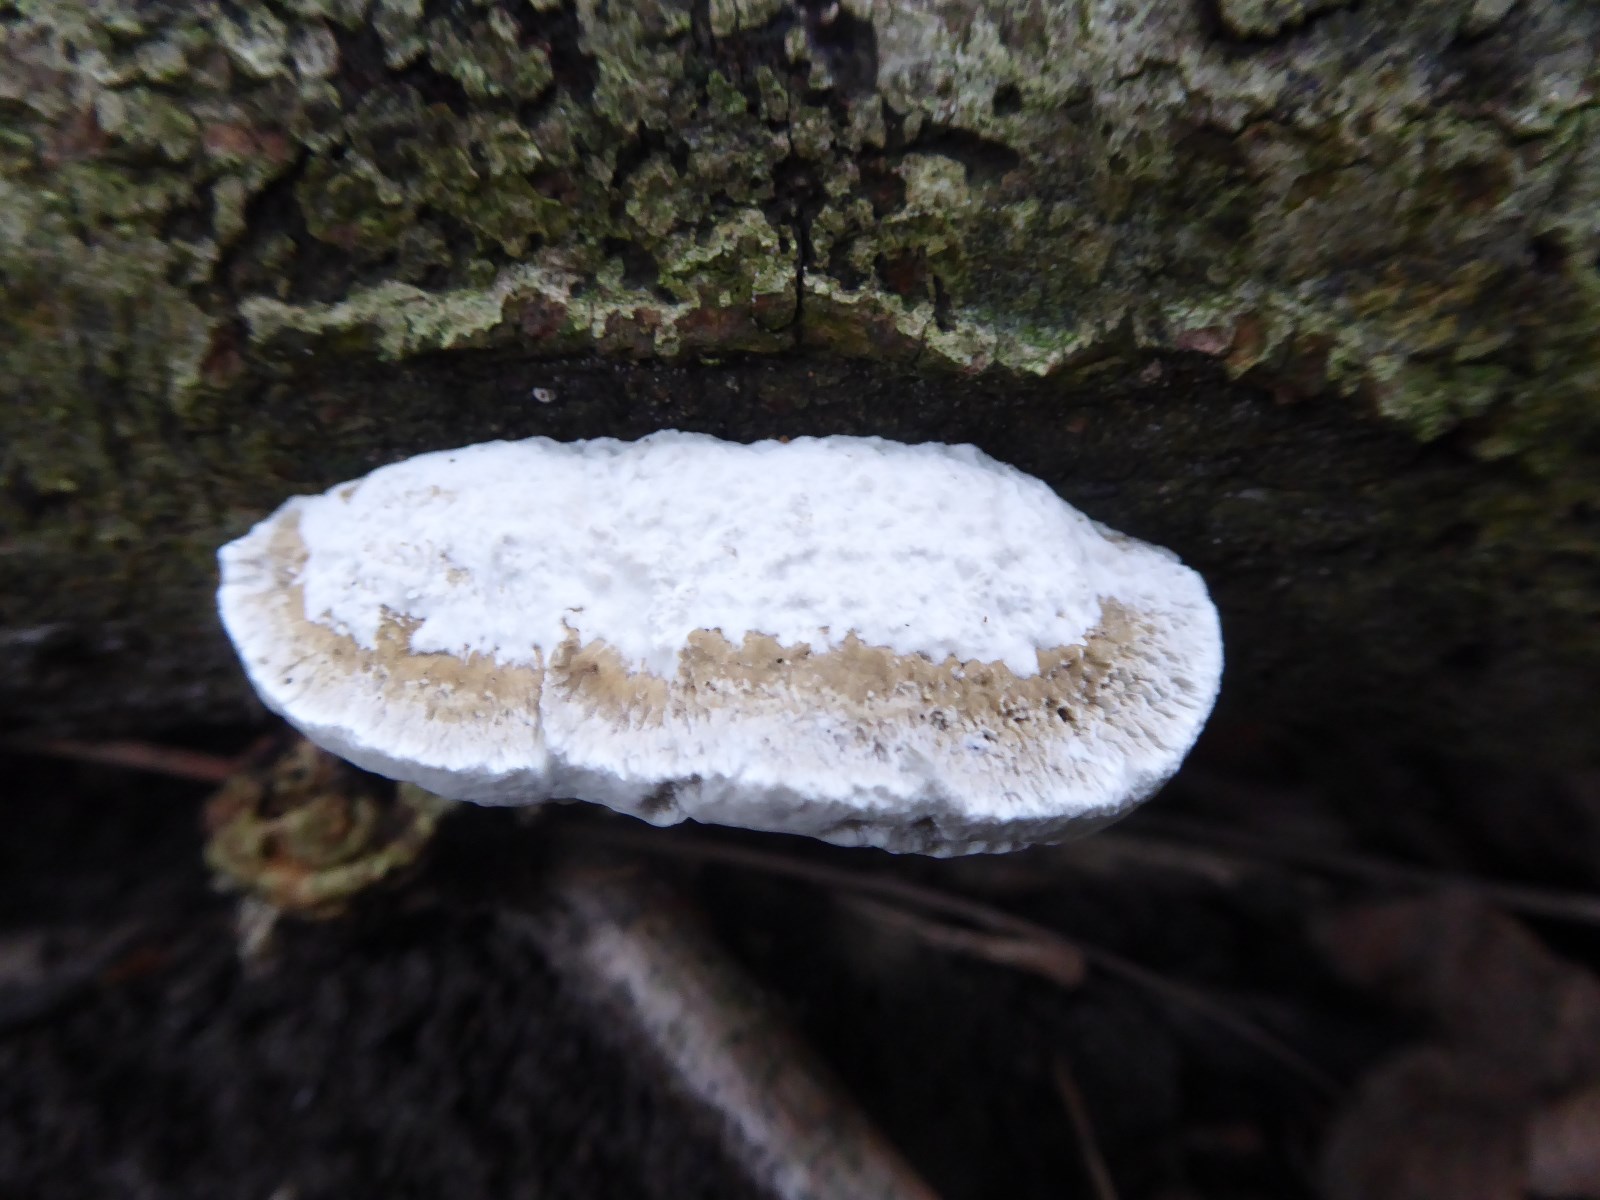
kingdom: Fungi
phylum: Basidiomycota
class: Agaricomycetes
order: Polyporales
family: Polyporaceae
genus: Daedaleopsis
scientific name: Daedaleopsis confragosa
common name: rødmende læderporesvamp
